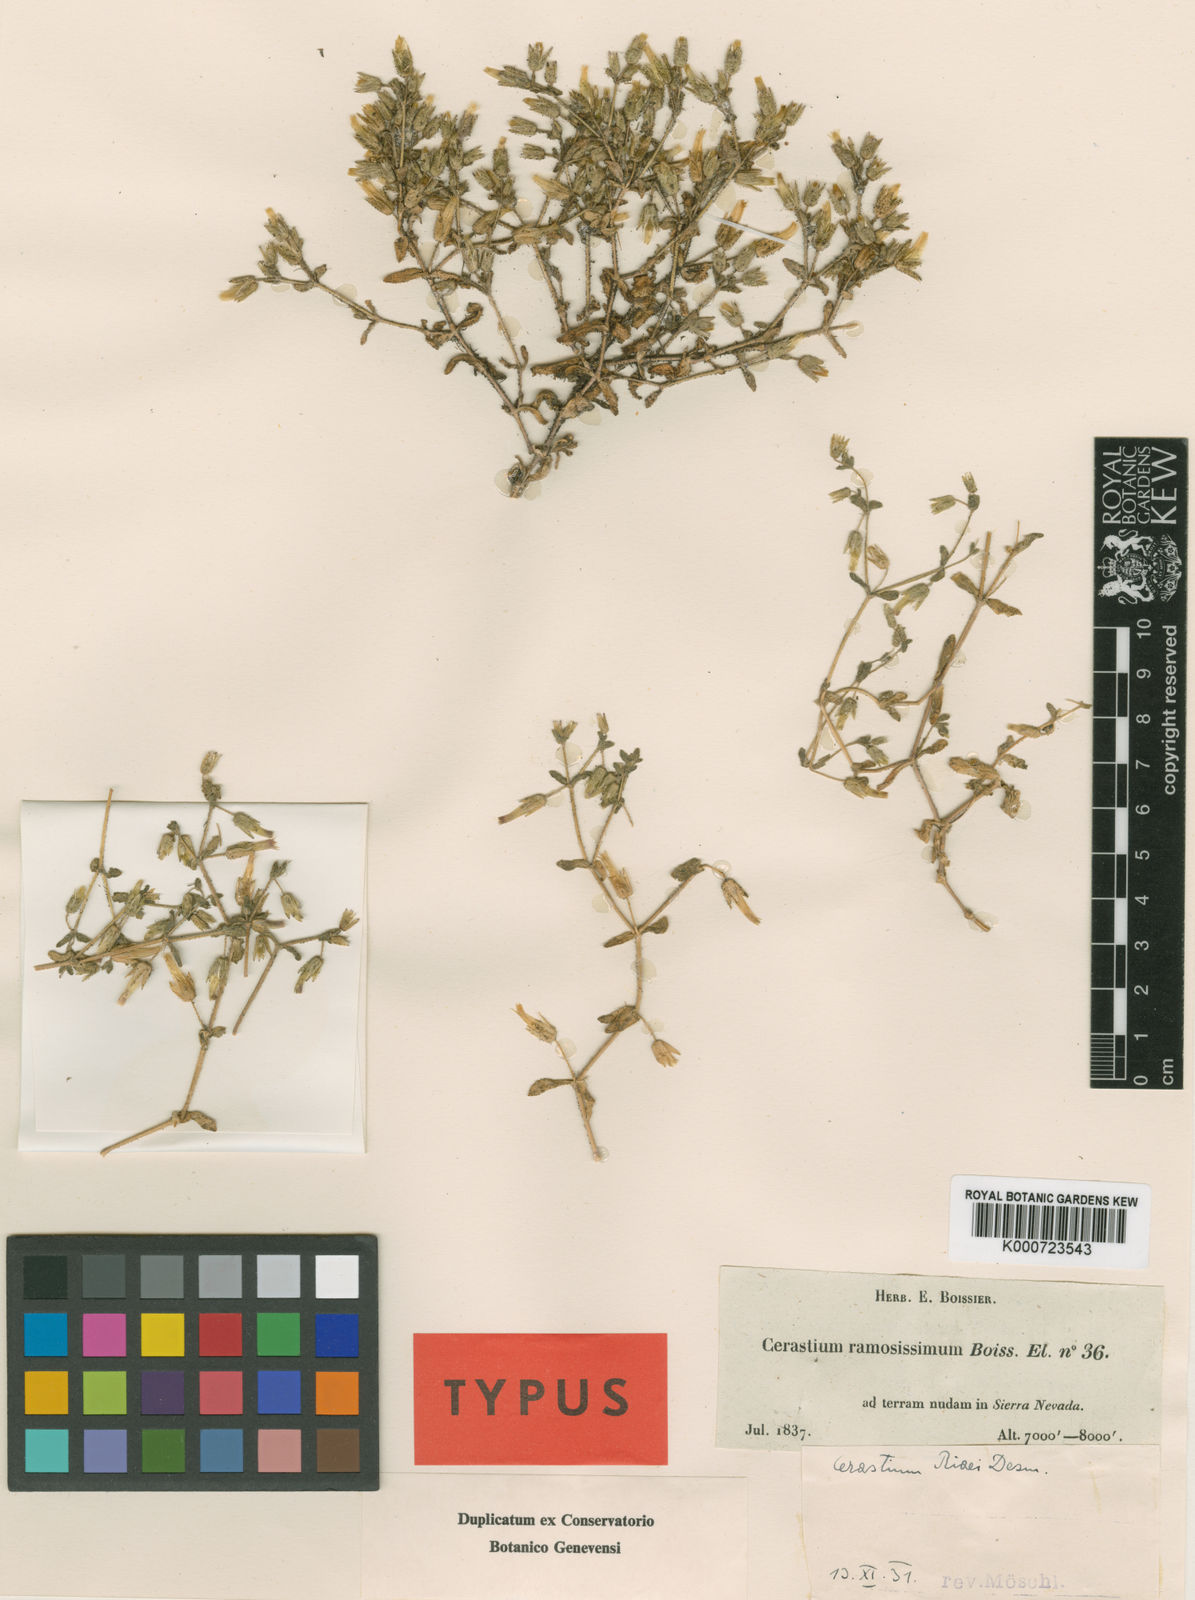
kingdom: Plantae
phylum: Tracheophyta
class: Magnoliopsida
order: Caryophyllales
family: Caryophyllaceae
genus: Cerastium
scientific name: Cerastium gracile
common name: Slender chickweed
